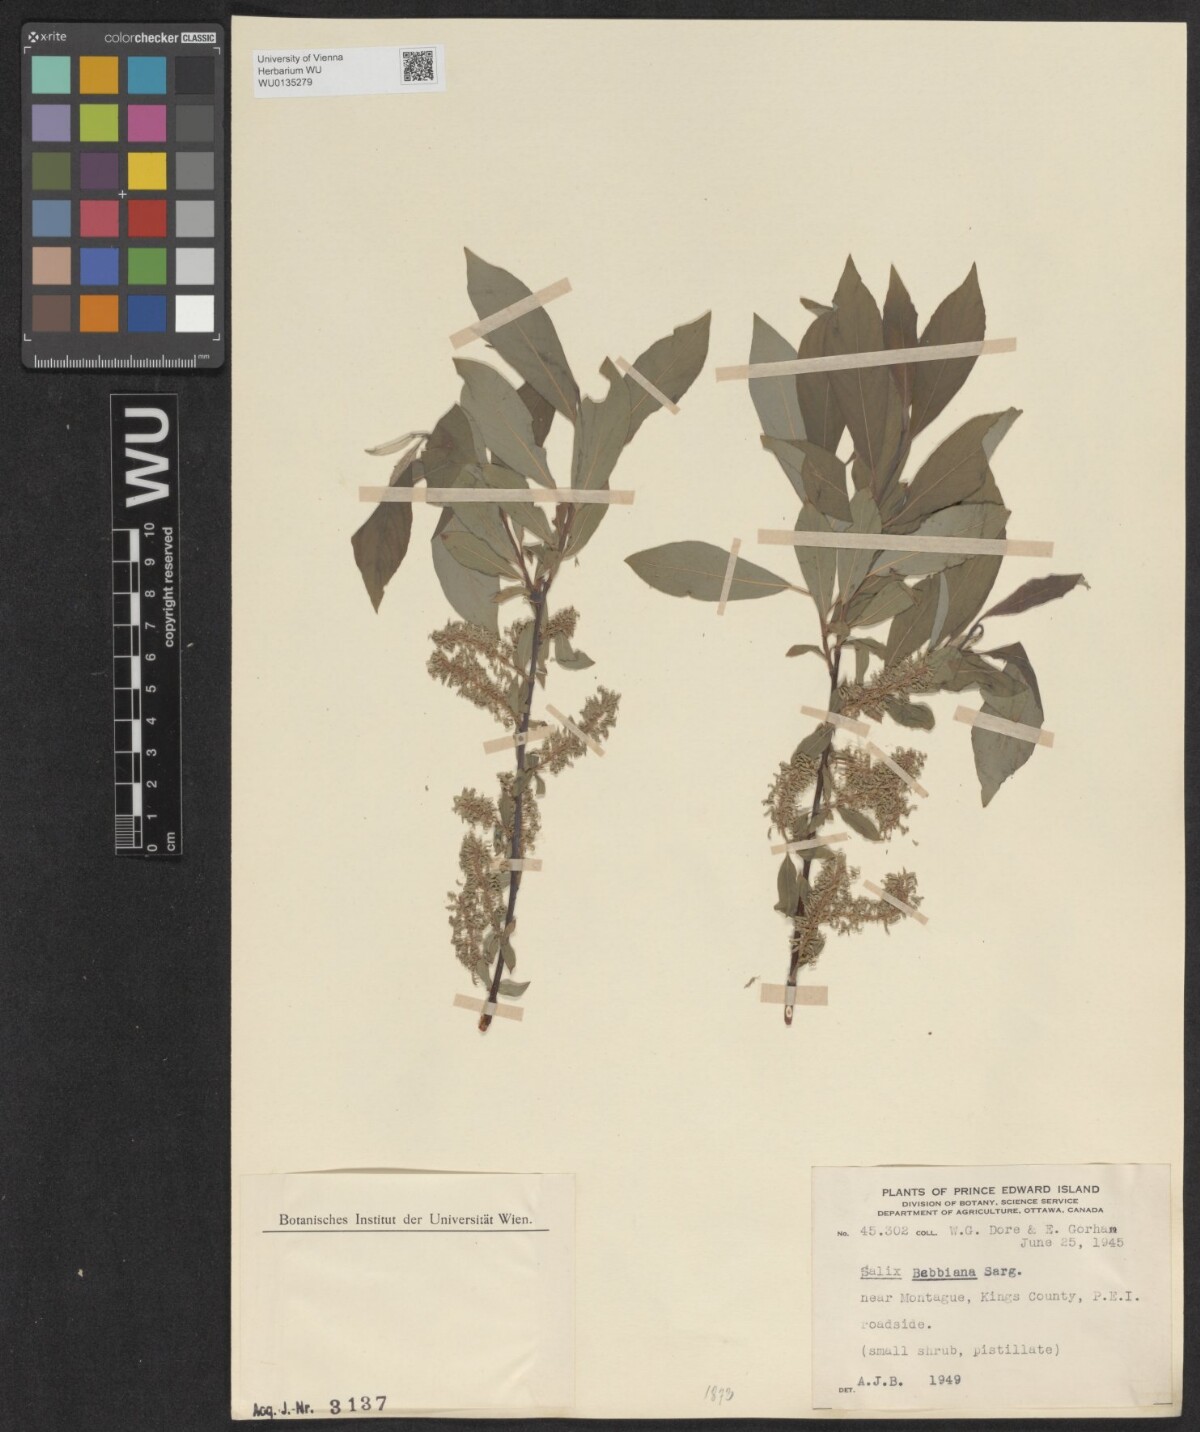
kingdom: Plantae
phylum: Tracheophyta
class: Magnoliopsida
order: Malpighiales
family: Salicaceae
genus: Salix
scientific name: Salix bebbiana
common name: Bebb's willow
